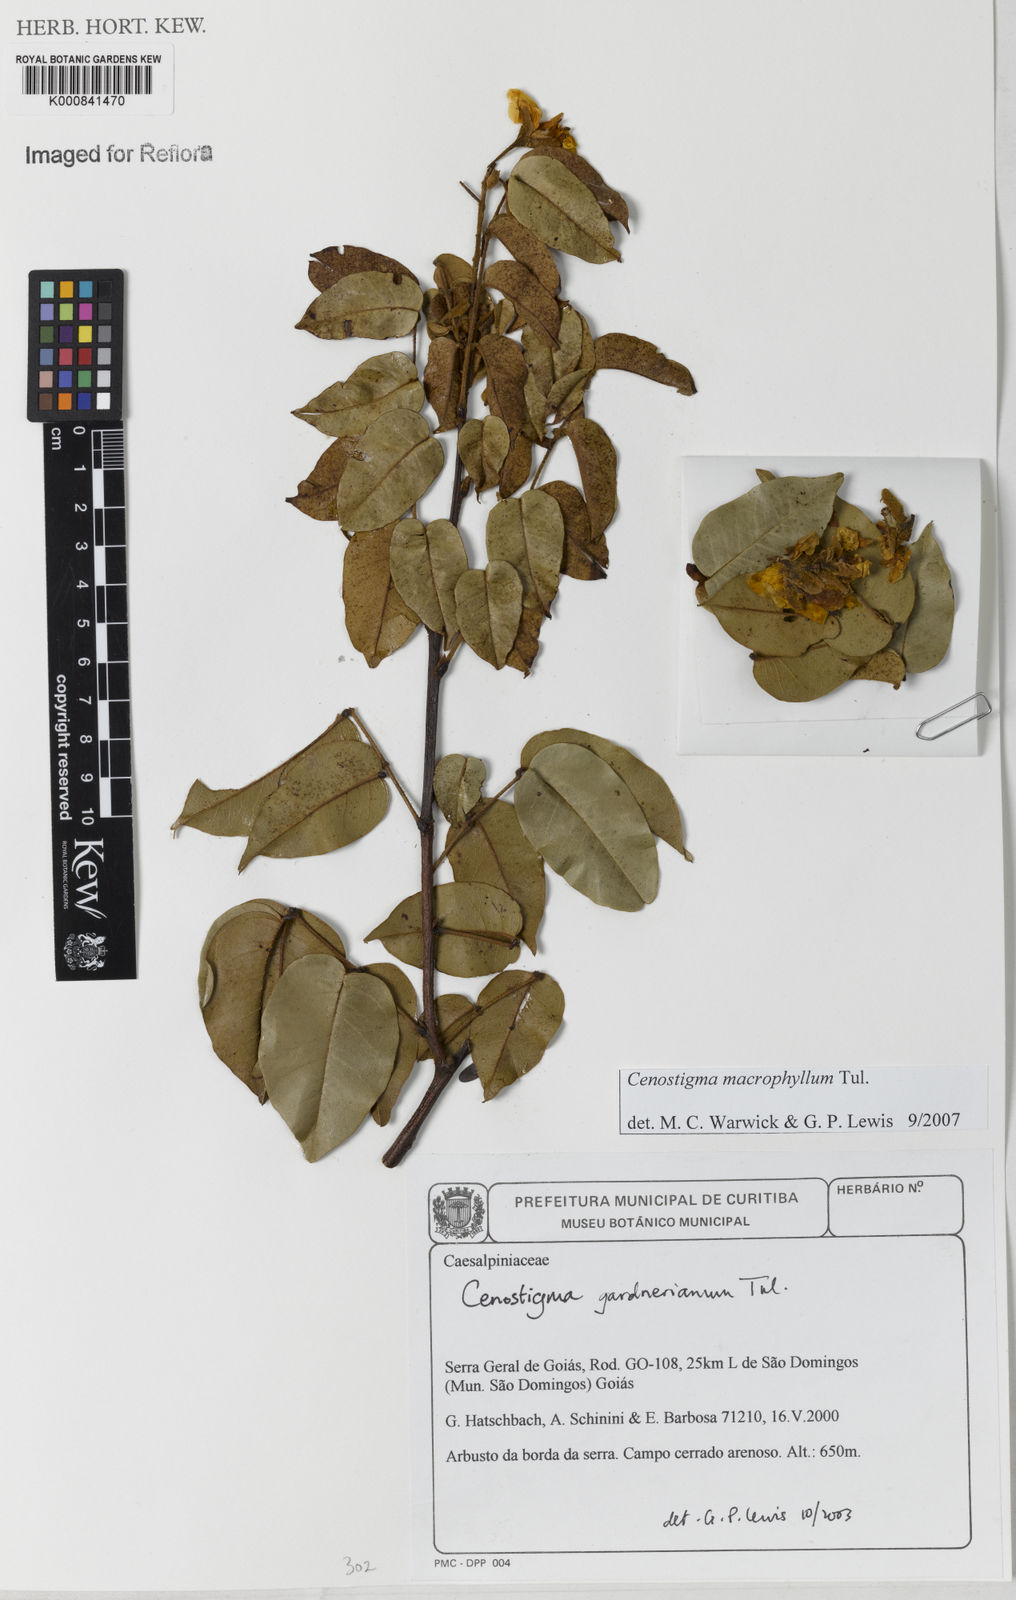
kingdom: Plantae
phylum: Tracheophyta
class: Magnoliopsida
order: Fabales
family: Fabaceae
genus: Cenostigma
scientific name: Cenostigma macrophyllum
